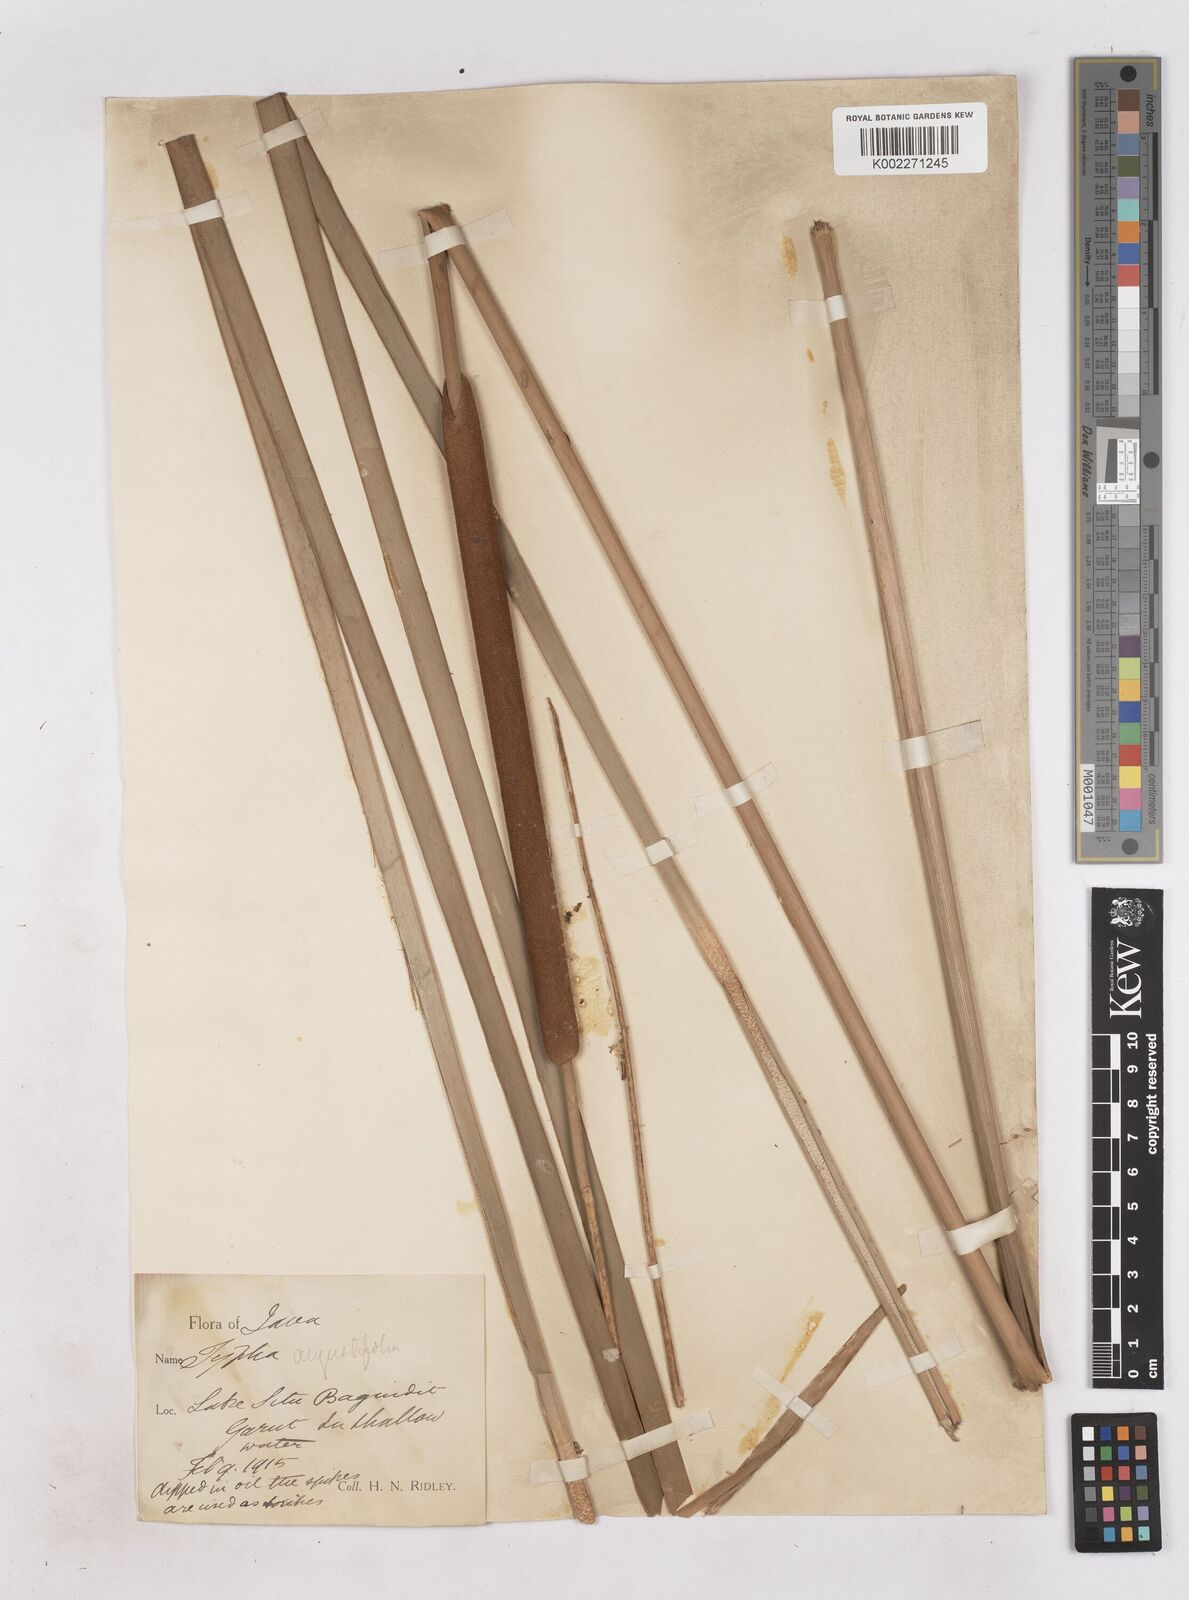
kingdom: Plantae
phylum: Tracheophyta
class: Liliopsida
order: Poales
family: Typhaceae
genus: Typha
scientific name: Typha domingensis
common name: Southern cattail
